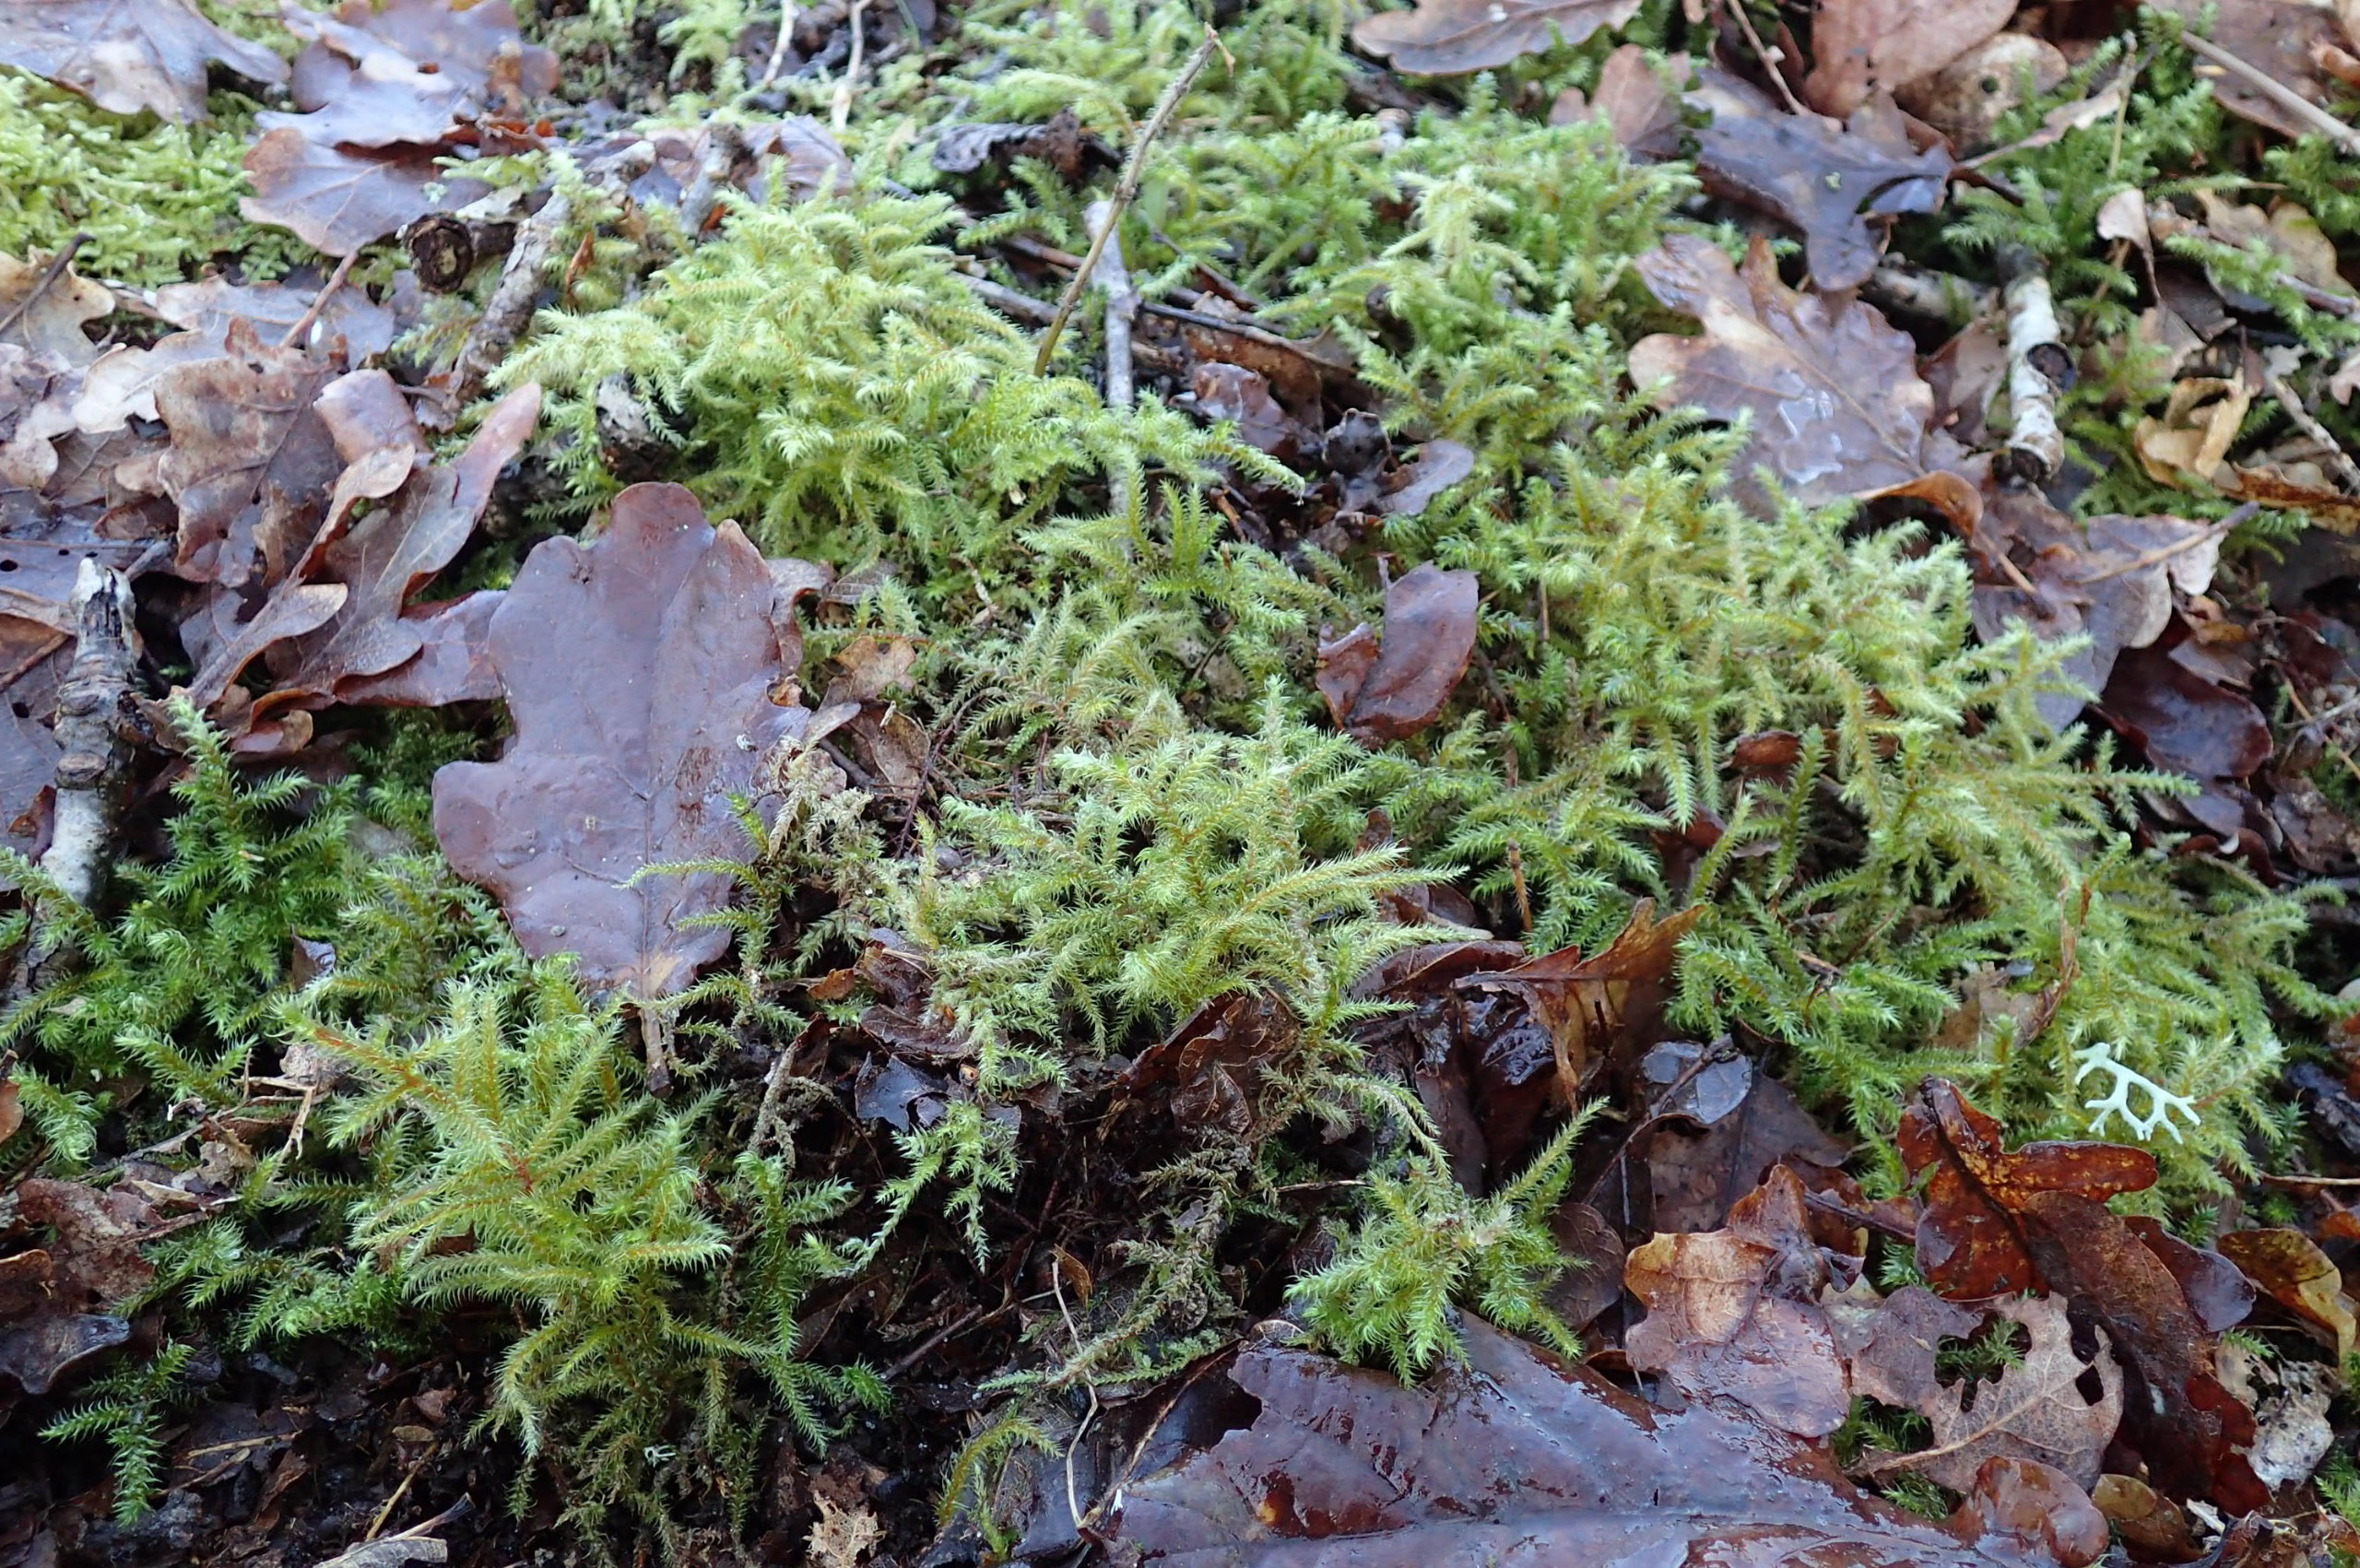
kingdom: Plantae
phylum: Bryophyta
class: Bryopsida
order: Hypnales
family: Hylocomiaceae
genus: Rhytidiadelphus
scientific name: Rhytidiadelphus loreus
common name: Ulvefod-kransemos
